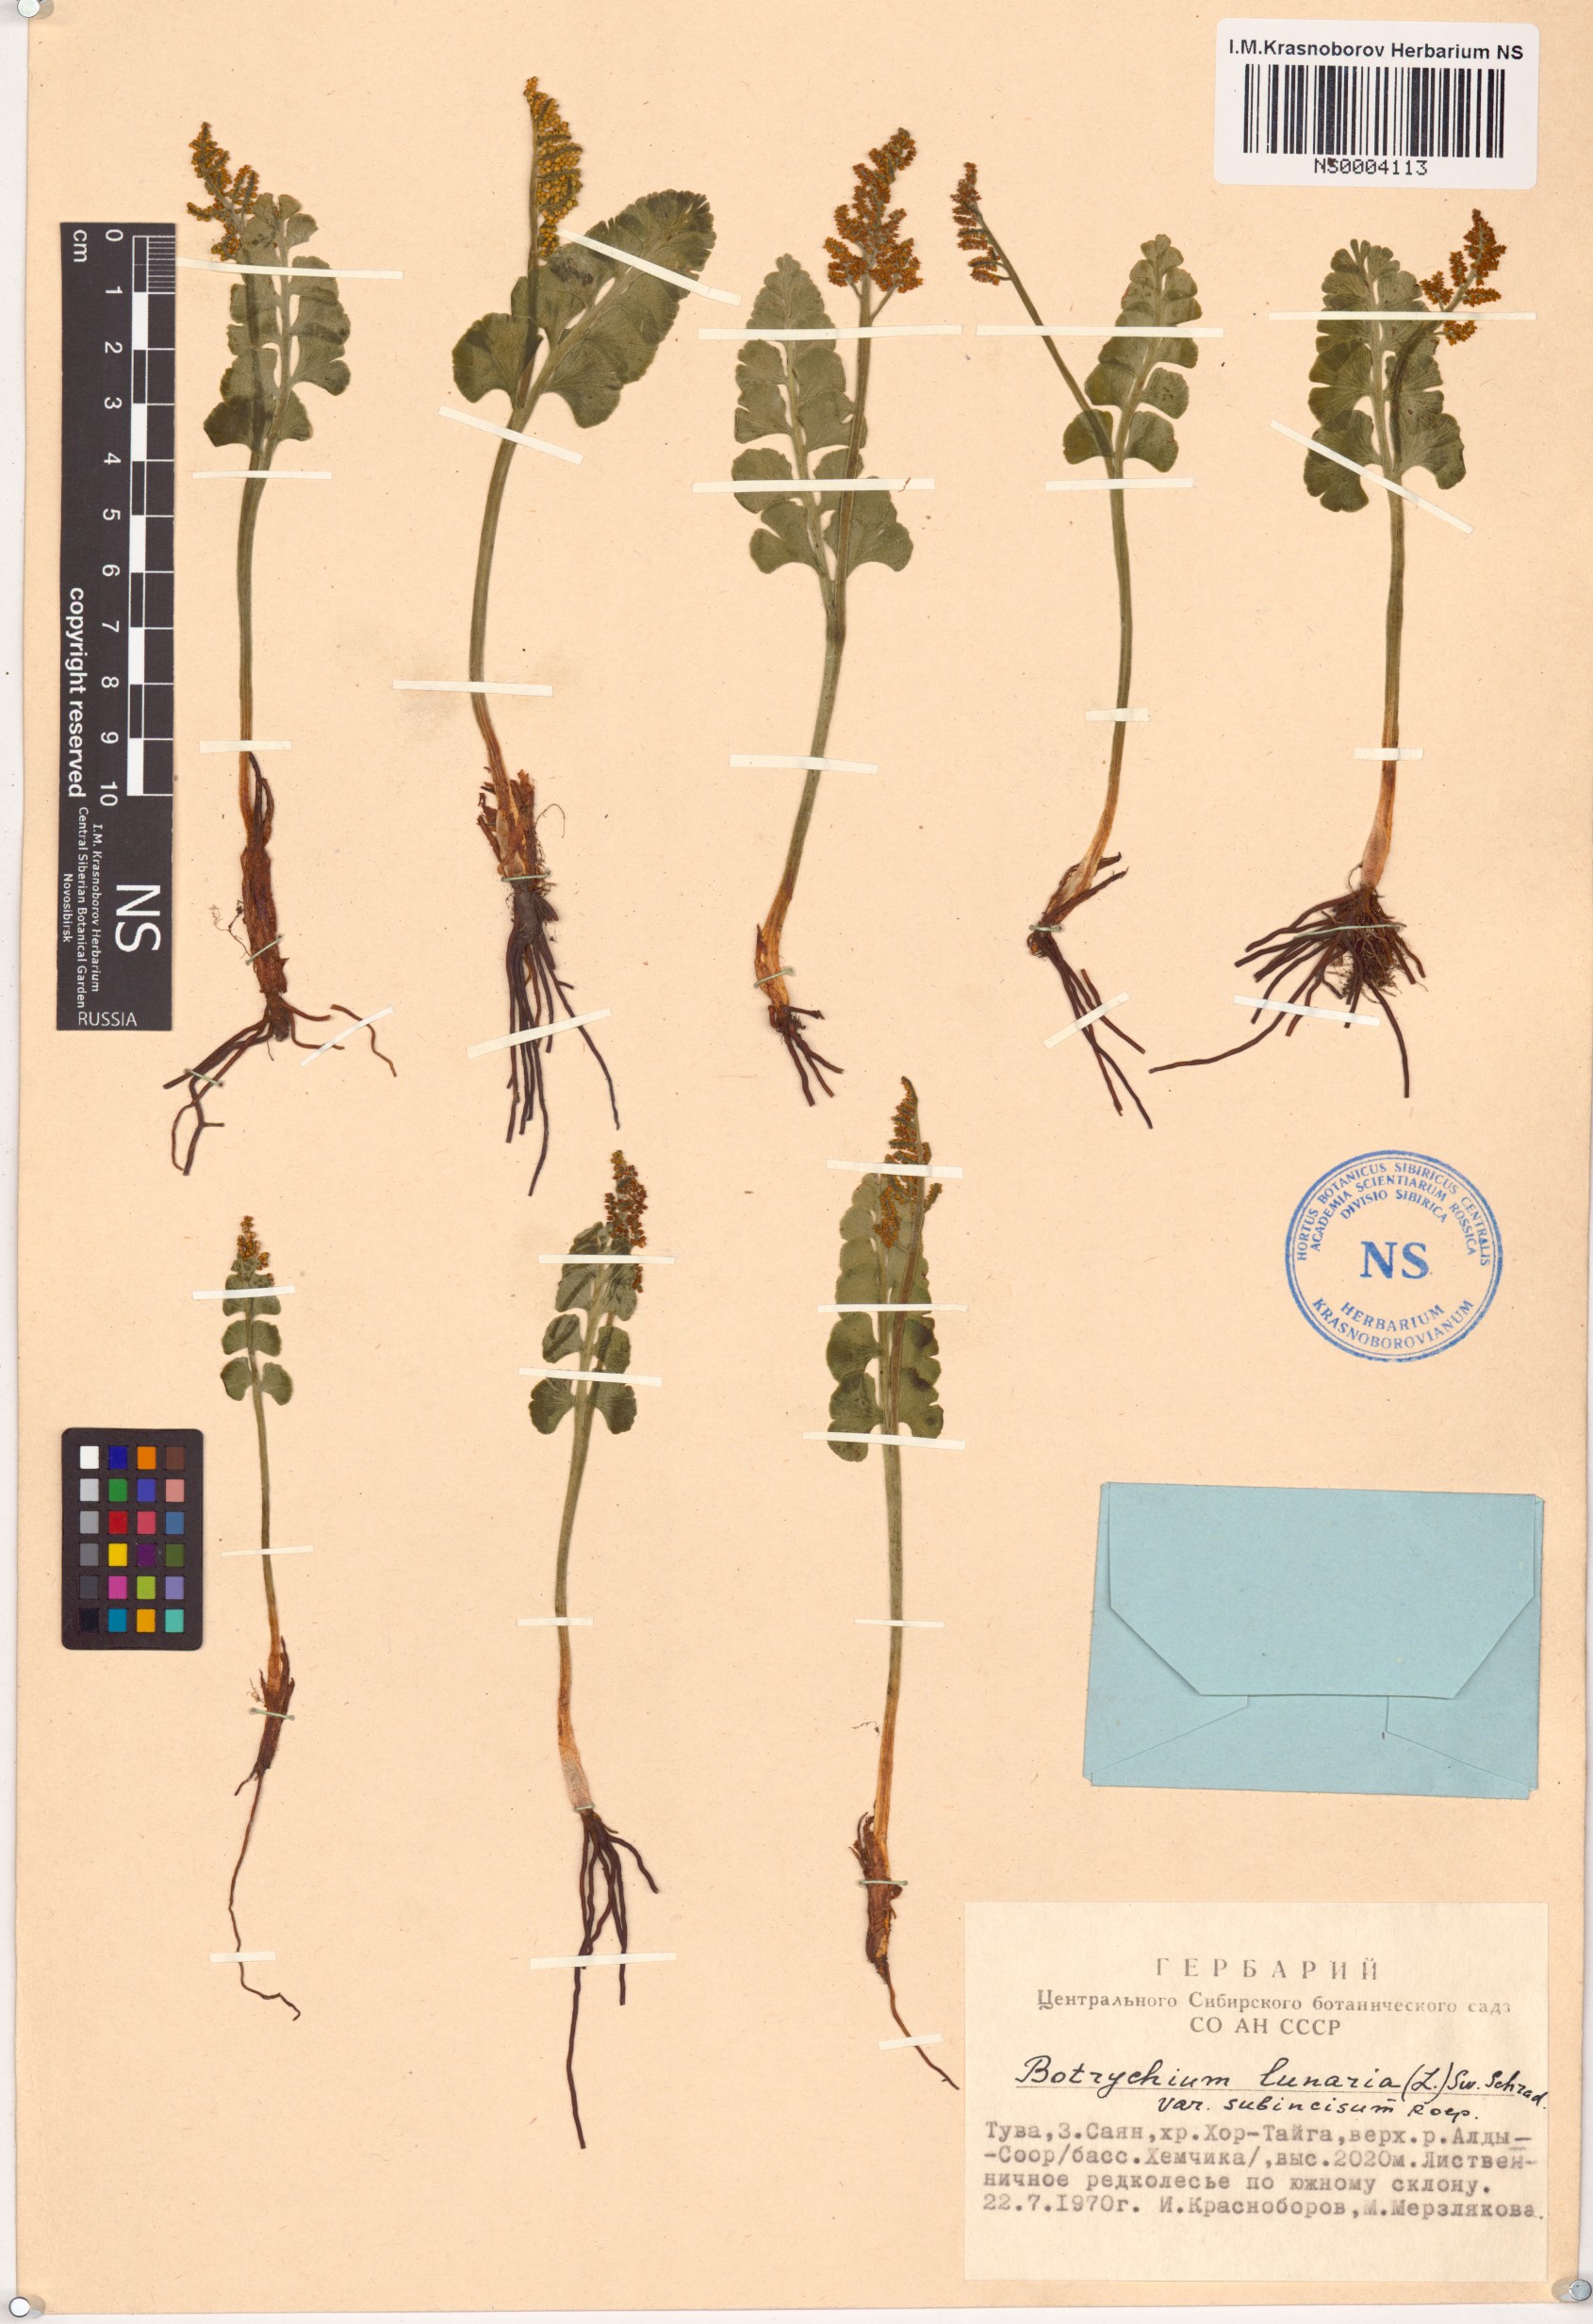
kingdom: Plantae
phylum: Tracheophyta
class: Polypodiopsida
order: Ophioglossales
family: Ophioglossaceae
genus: Botrychium
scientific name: Botrychium lunaria
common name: Moonwort
